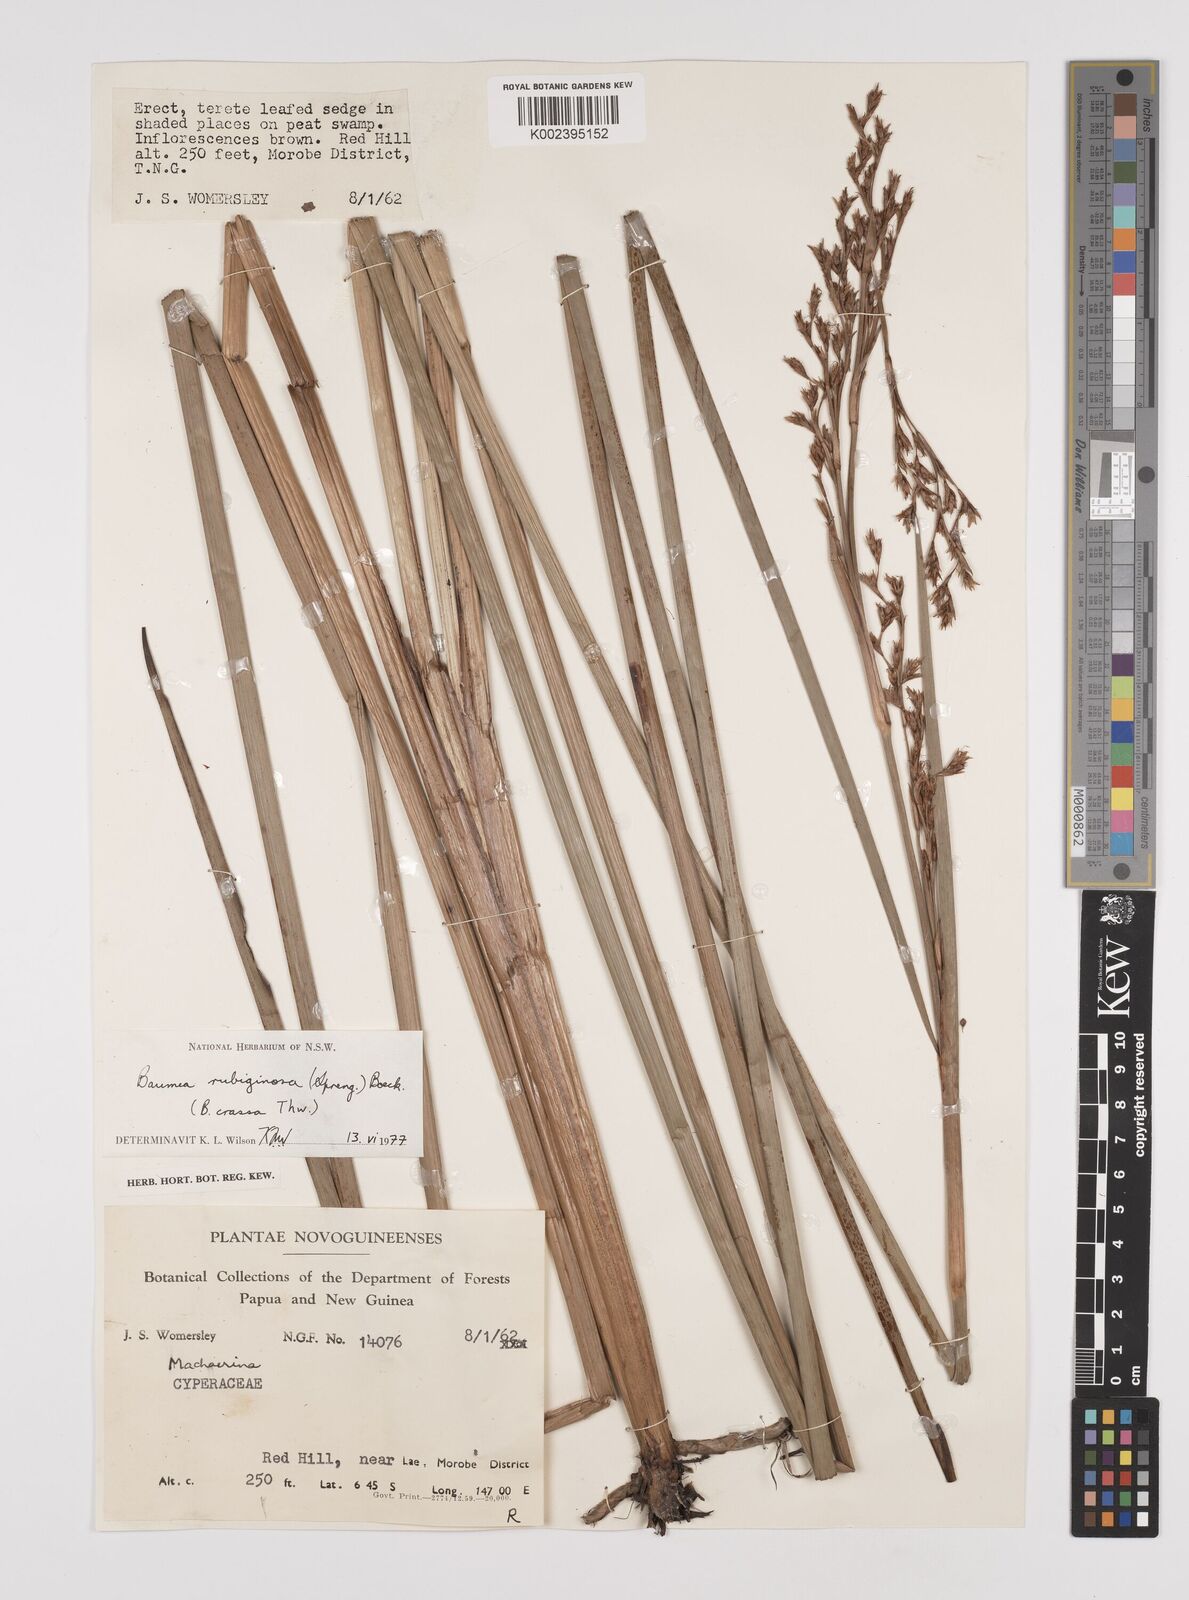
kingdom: Plantae
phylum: Tracheophyta
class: Liliopsida
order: Poales
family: Cyperaceae
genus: Machaerina
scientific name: Machaerina rubiginosa
